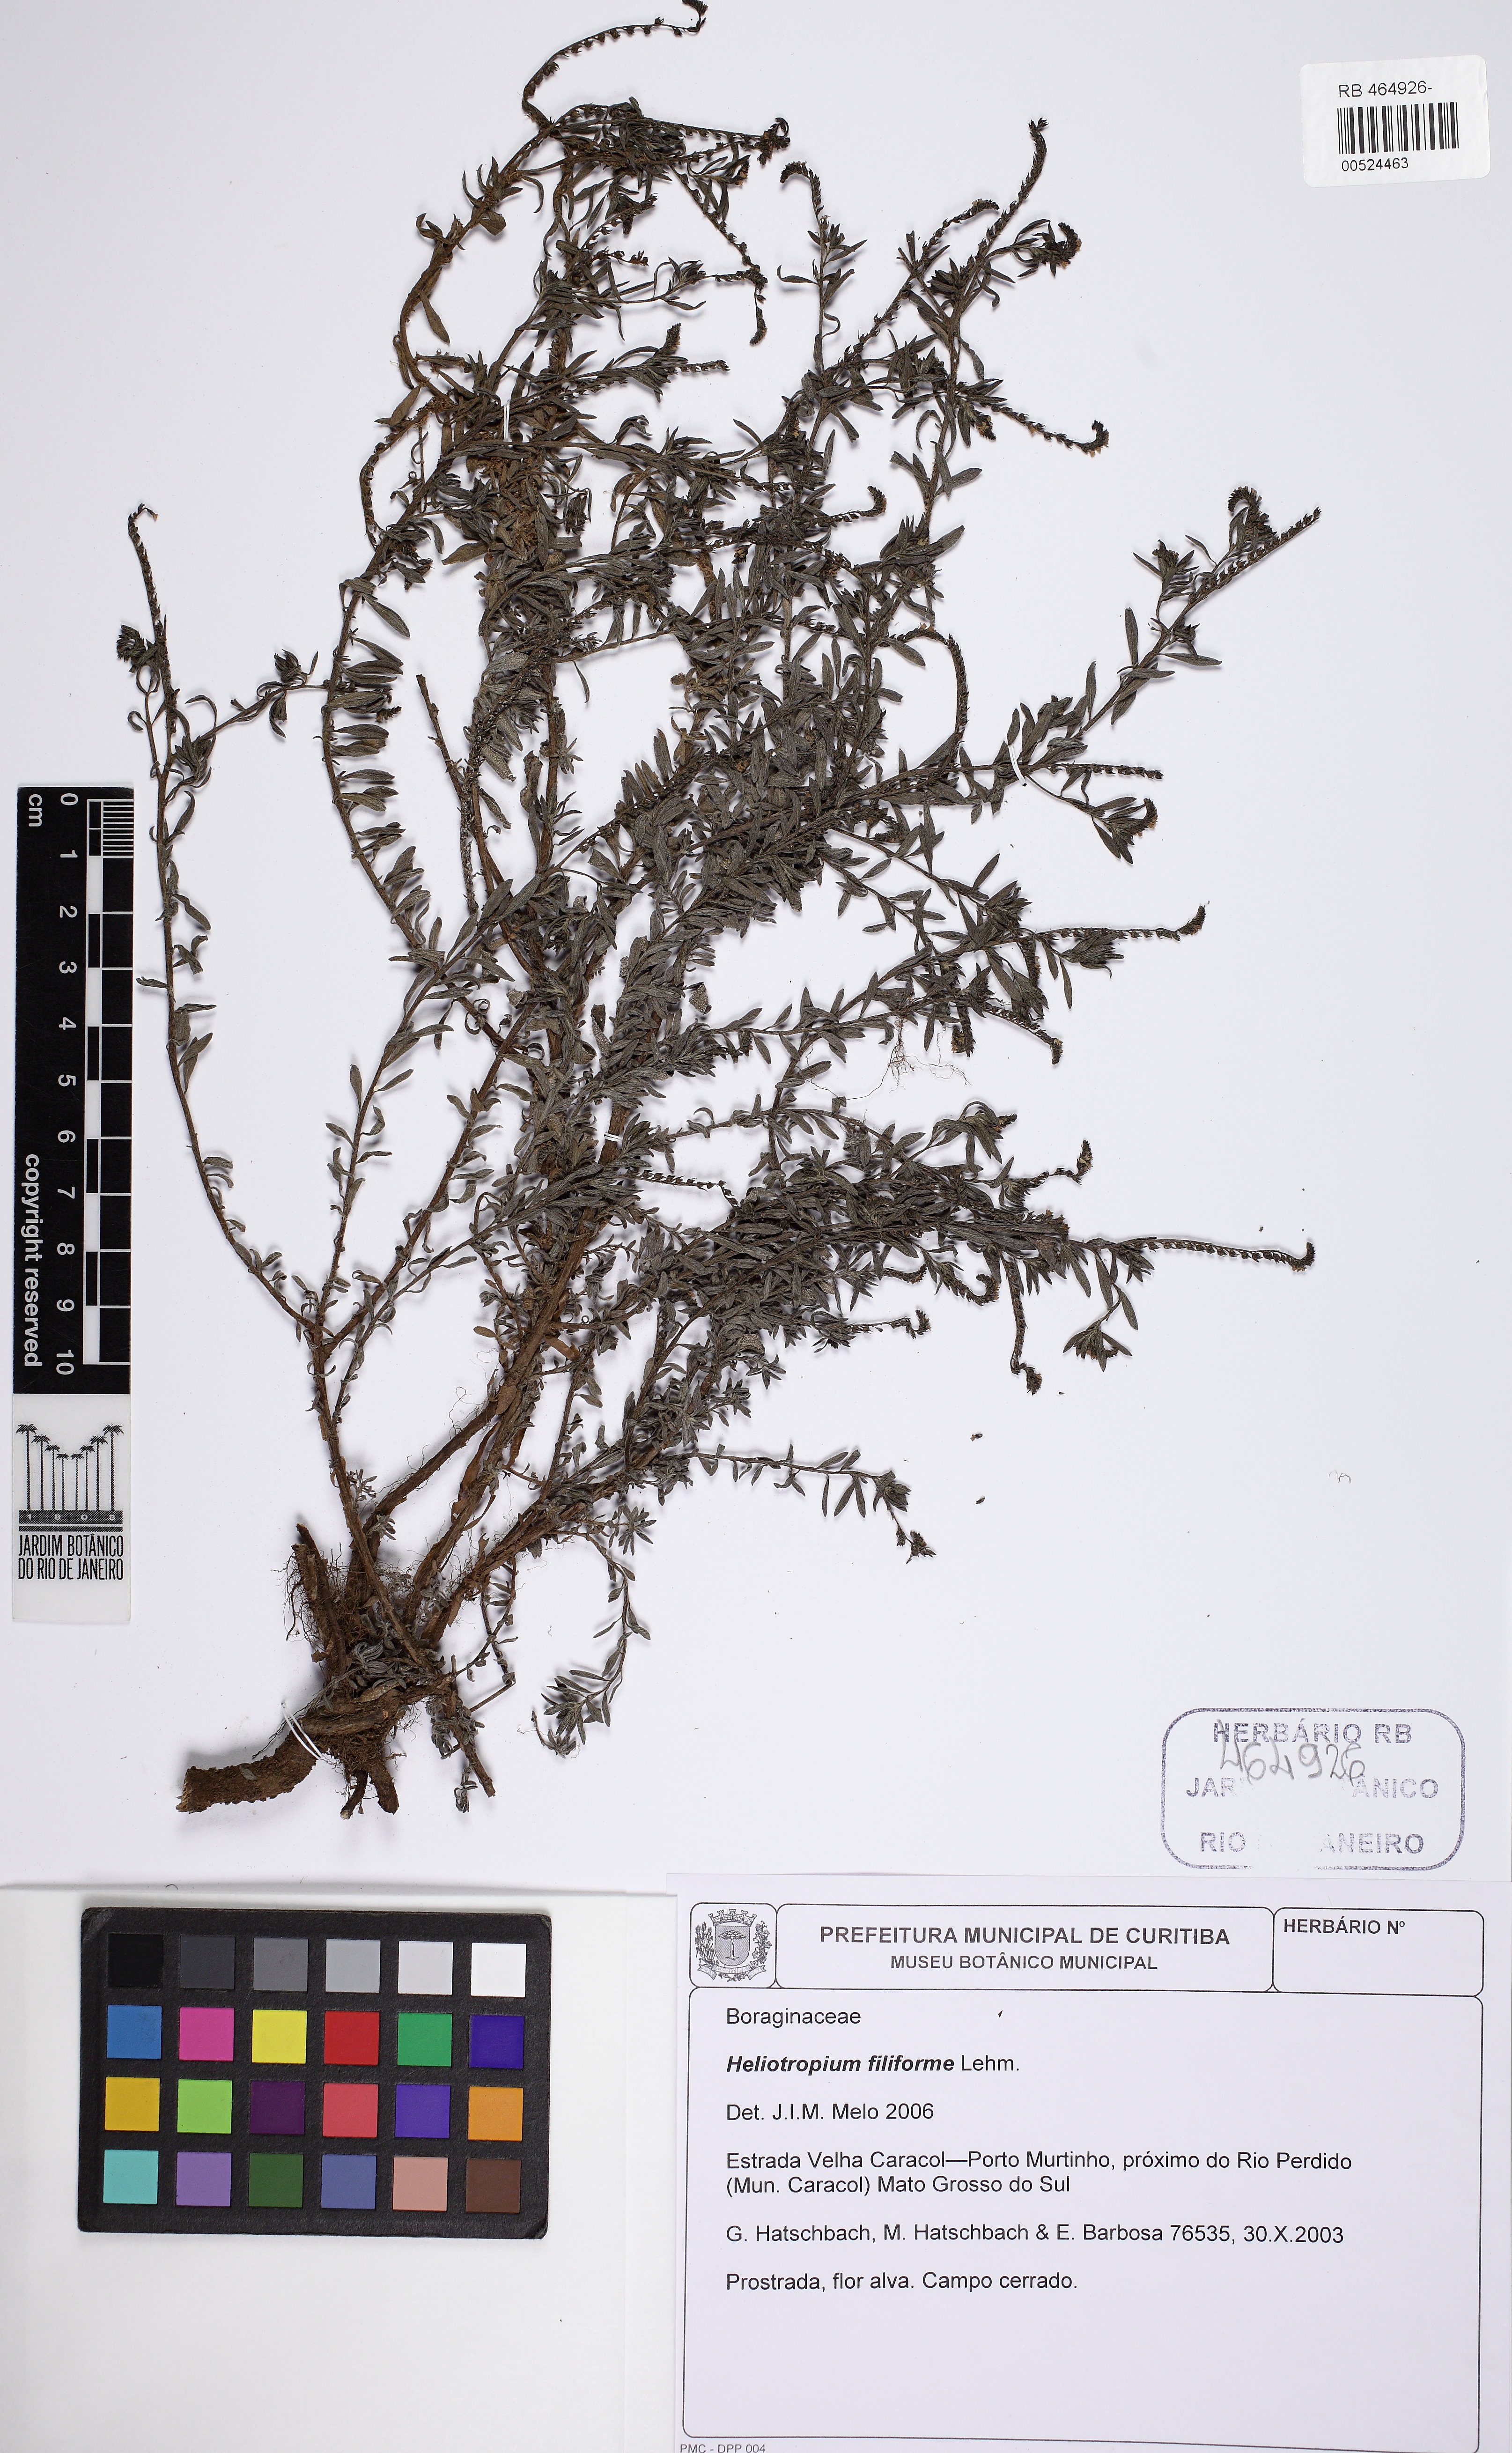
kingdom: Plantae
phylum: Tracheophyta
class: Magnoliopsida
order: Boraginales
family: Heliotropiaceae
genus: Euploca
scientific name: Euploca filiformis
